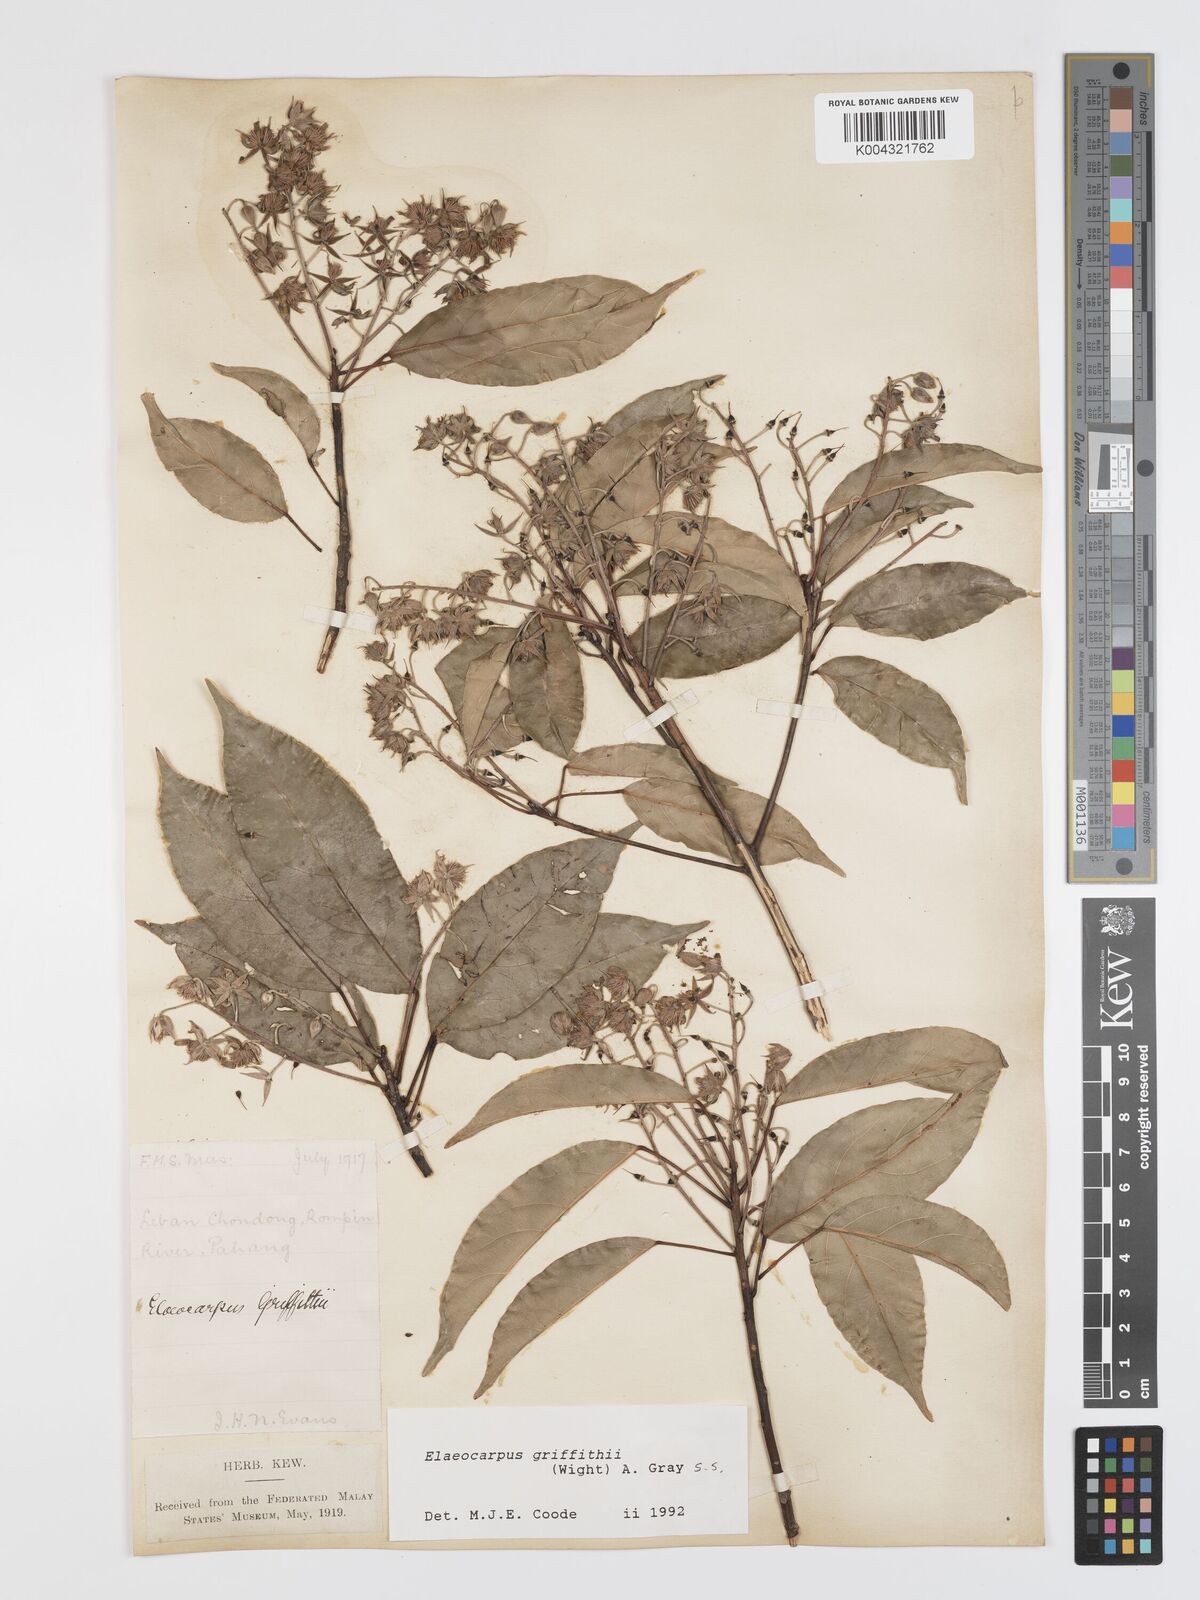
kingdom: Plantae
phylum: Tracheophyta
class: Magnoliopsida
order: Oxalidales
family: Elaeocarpaceae
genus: Elaeocarpus
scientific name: Elaeocarpus griffithii
